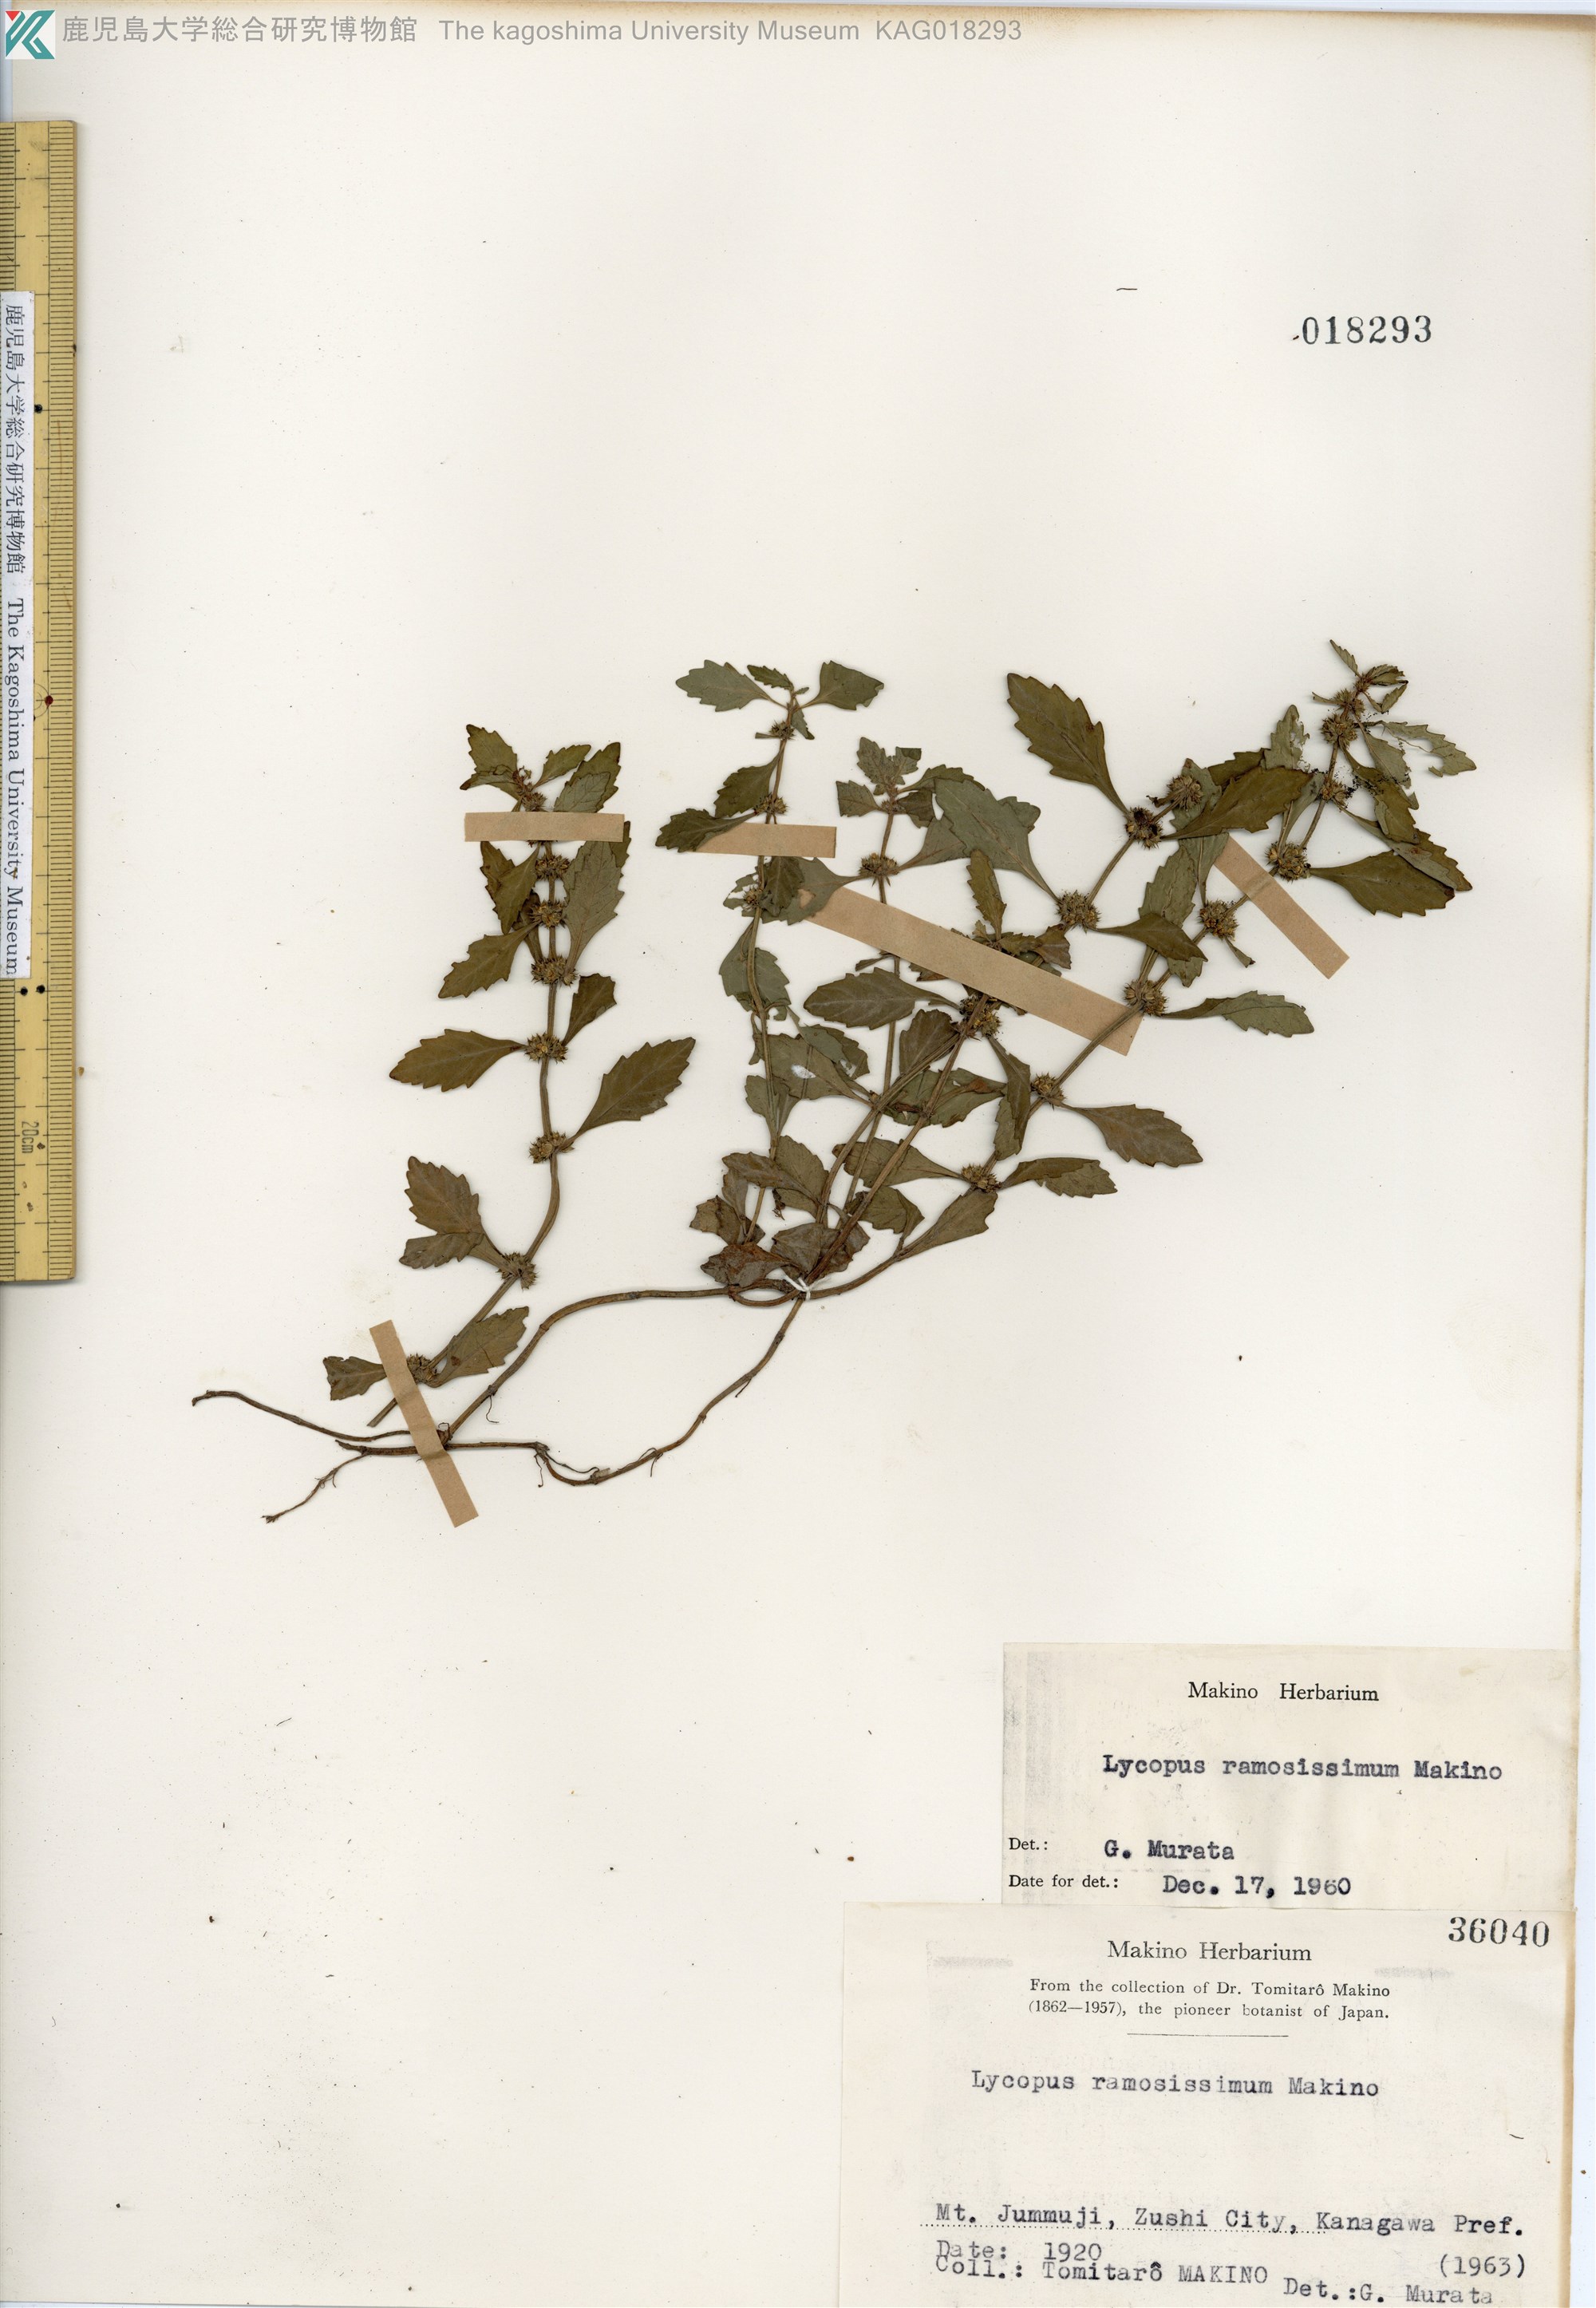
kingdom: Plantae
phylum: Tracheophyta
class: Magnoliopsida
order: Lamiales
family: Lamiaceae
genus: Lycopus
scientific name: Lycopus cavaleriei
